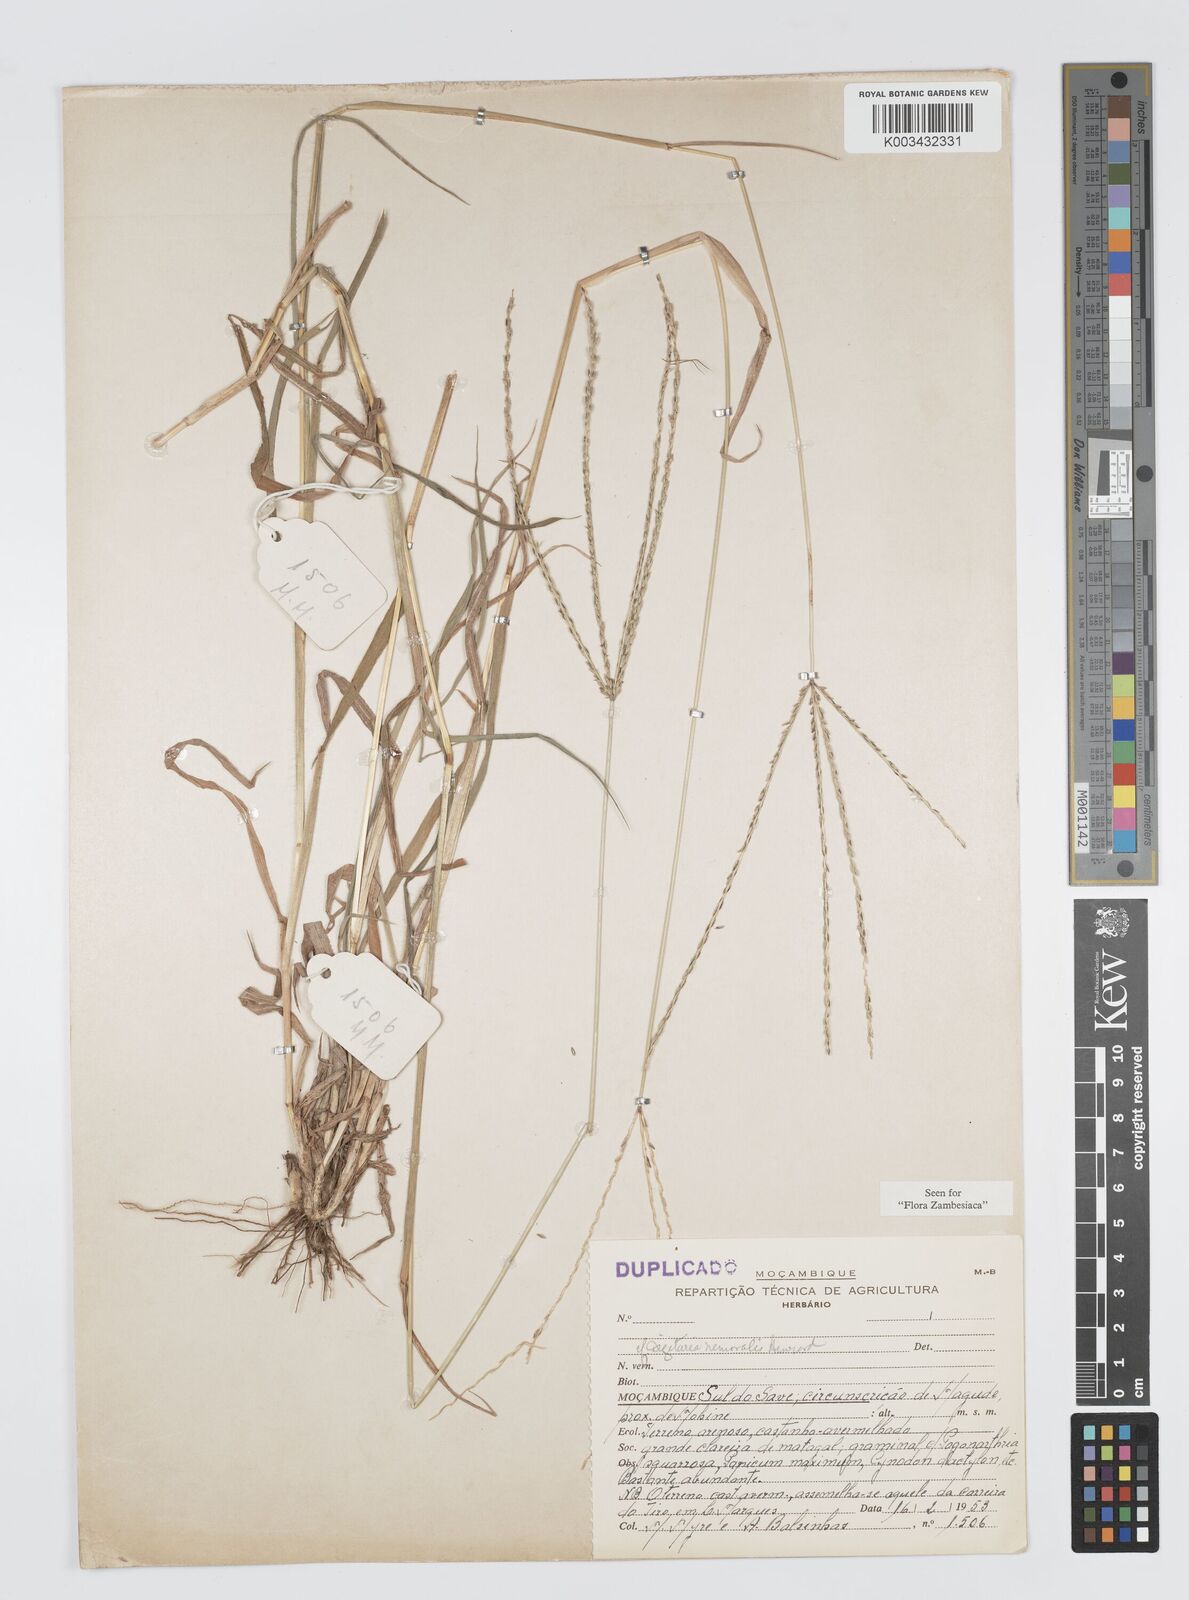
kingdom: Plantae
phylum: Tracheophyta
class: Liliopsida
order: Poales
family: Poaceae
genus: Digitaria
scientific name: Digitaria eriantha
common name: Digitgrass
